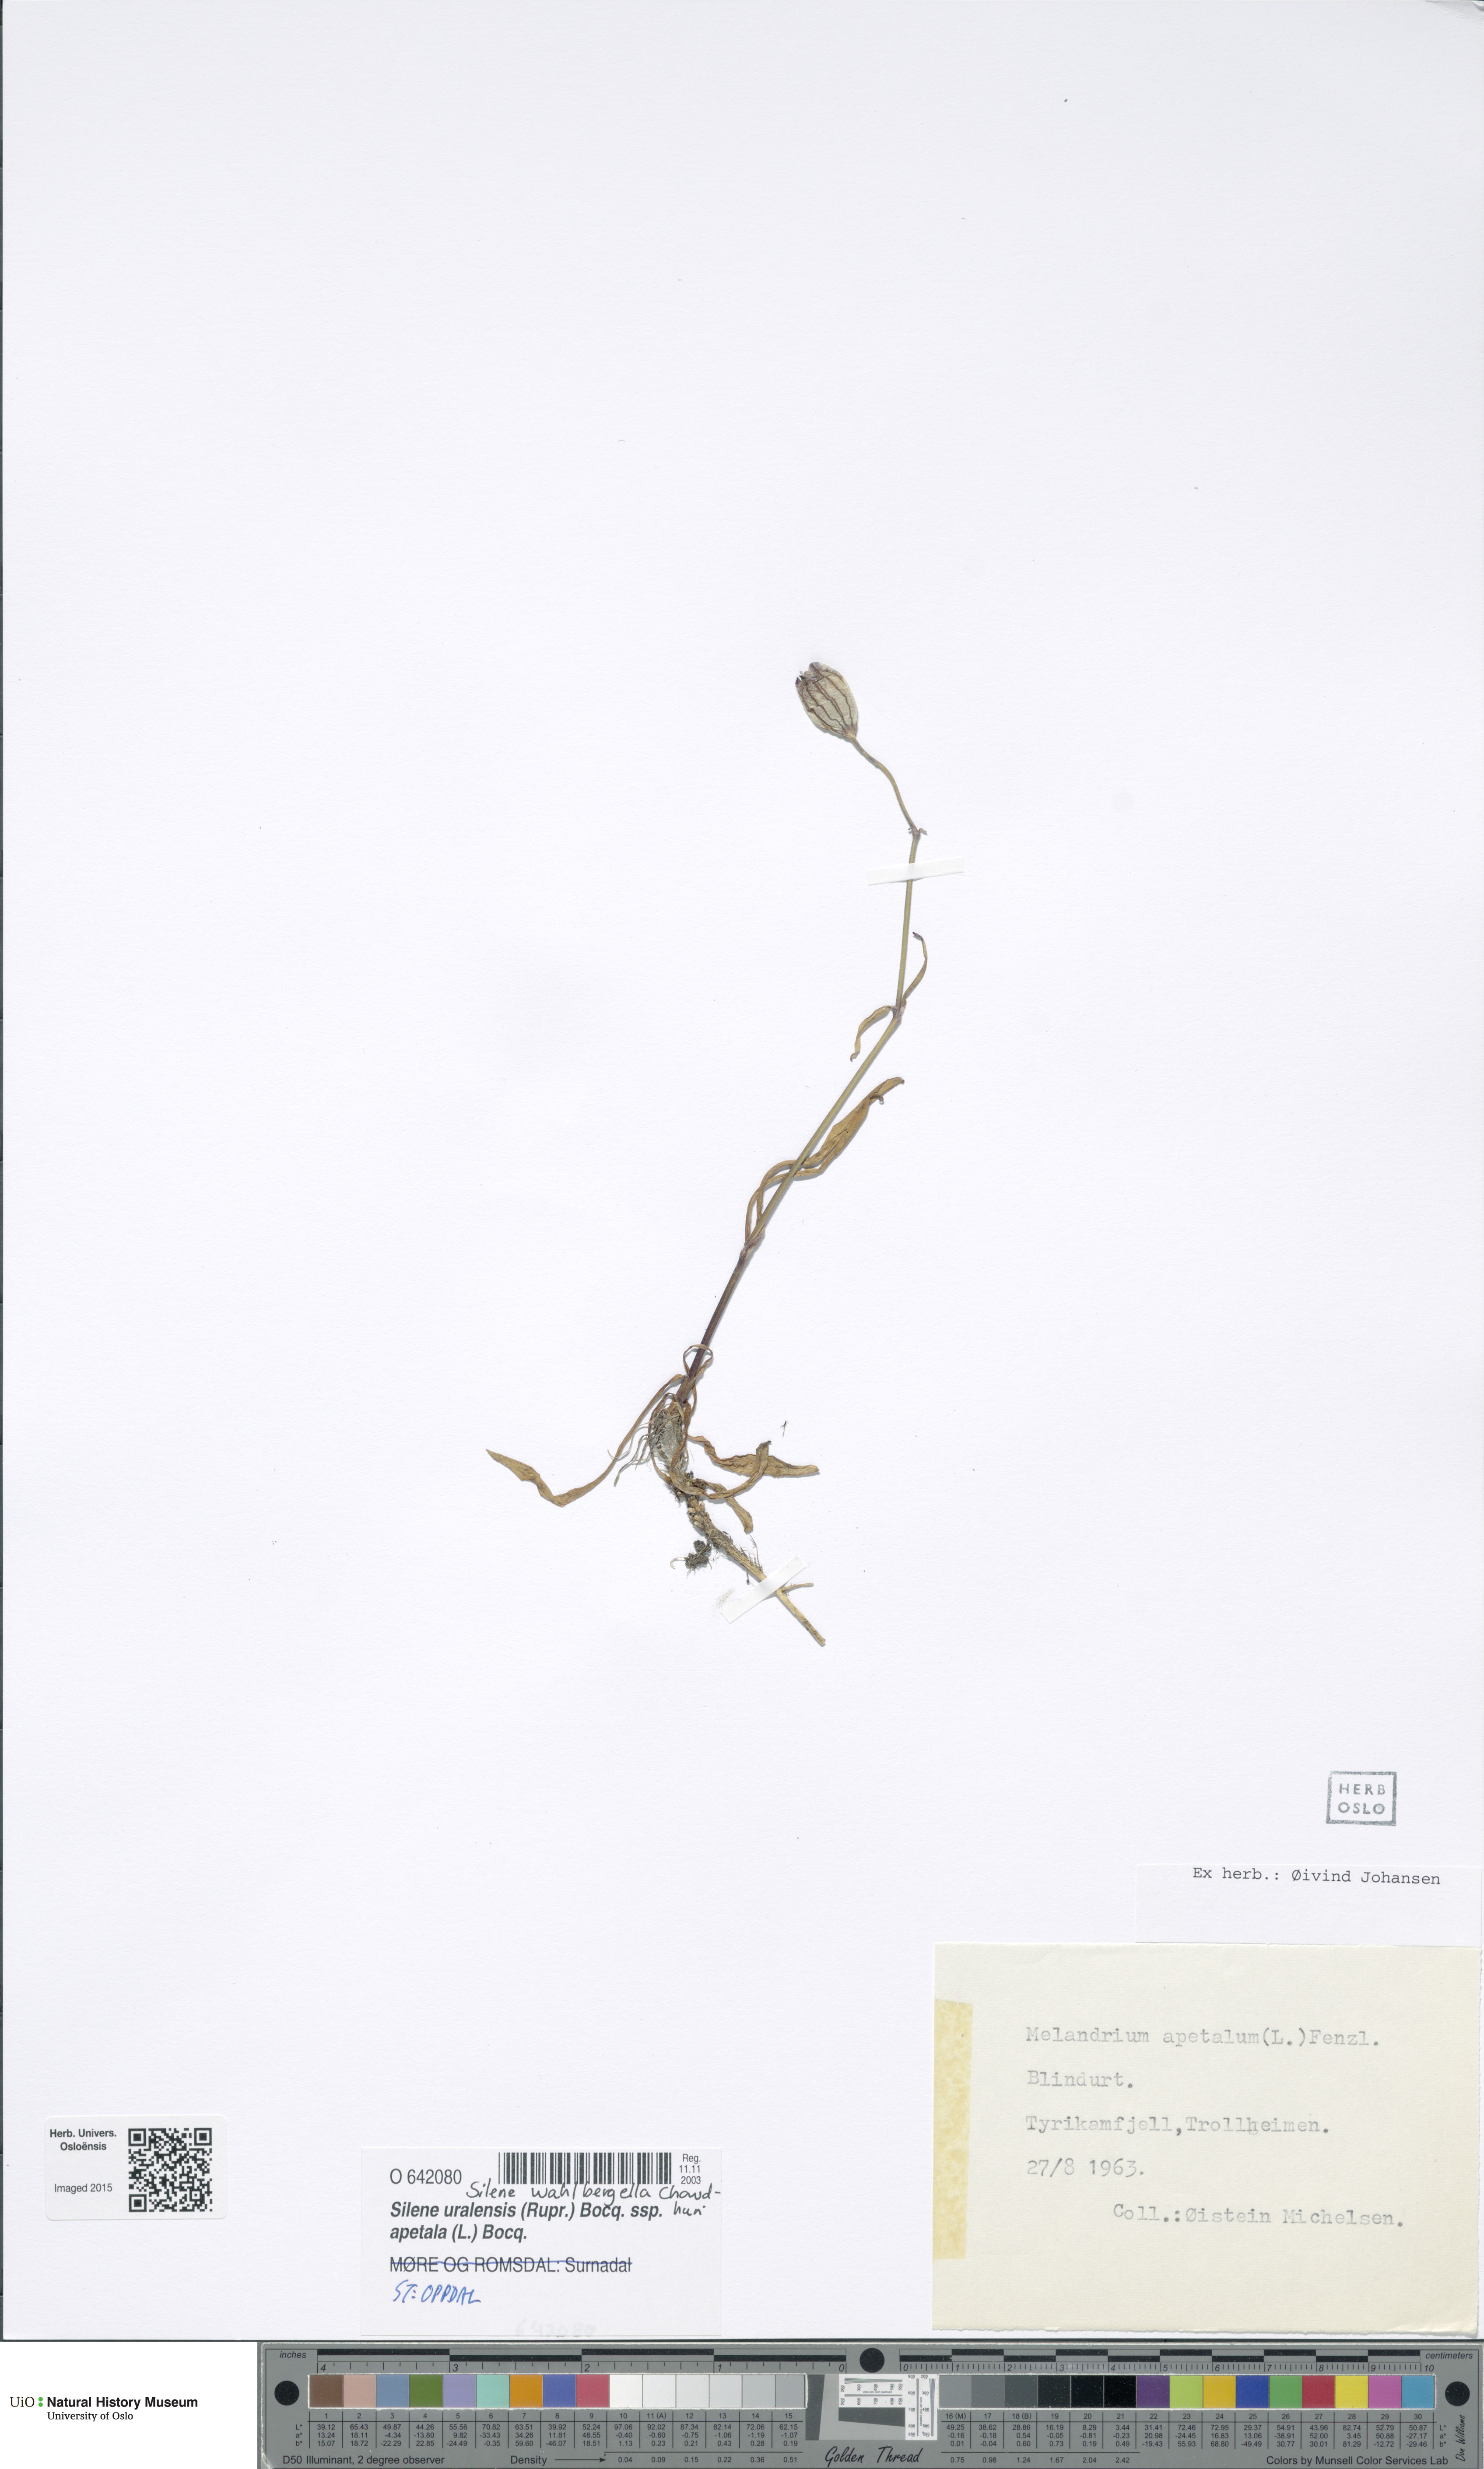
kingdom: Plantae
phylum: Tracheophyta
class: Magnoliopsida
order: Caryophyllales
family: Caryophyllaceae
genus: Silene
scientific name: Silene wahlbergella
